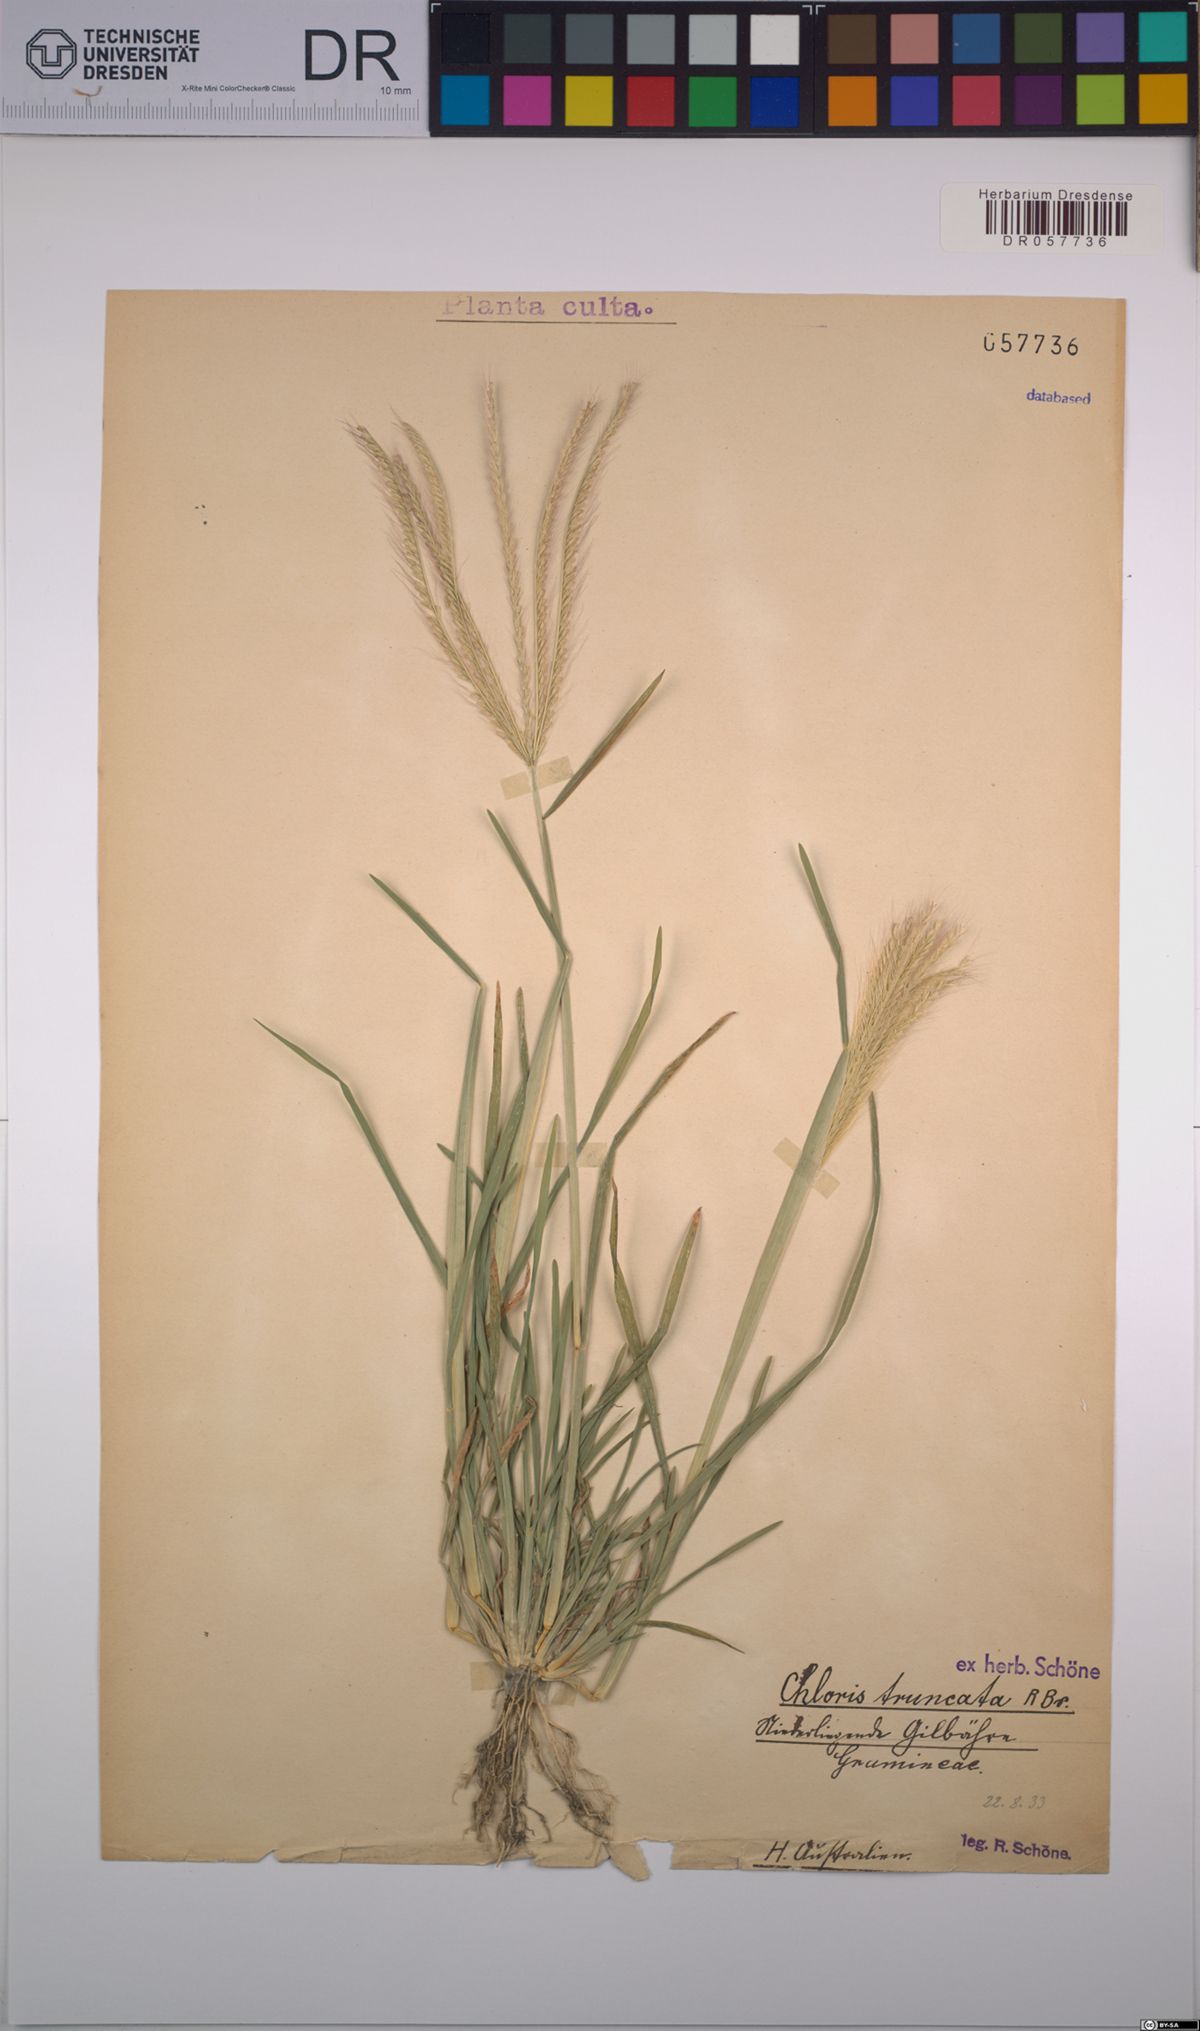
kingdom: Plantae
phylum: Tracheophyta
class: Liliopsida
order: Poales
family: Poaceae
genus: Chloris
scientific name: Chloris truncata
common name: Windmill-grass
